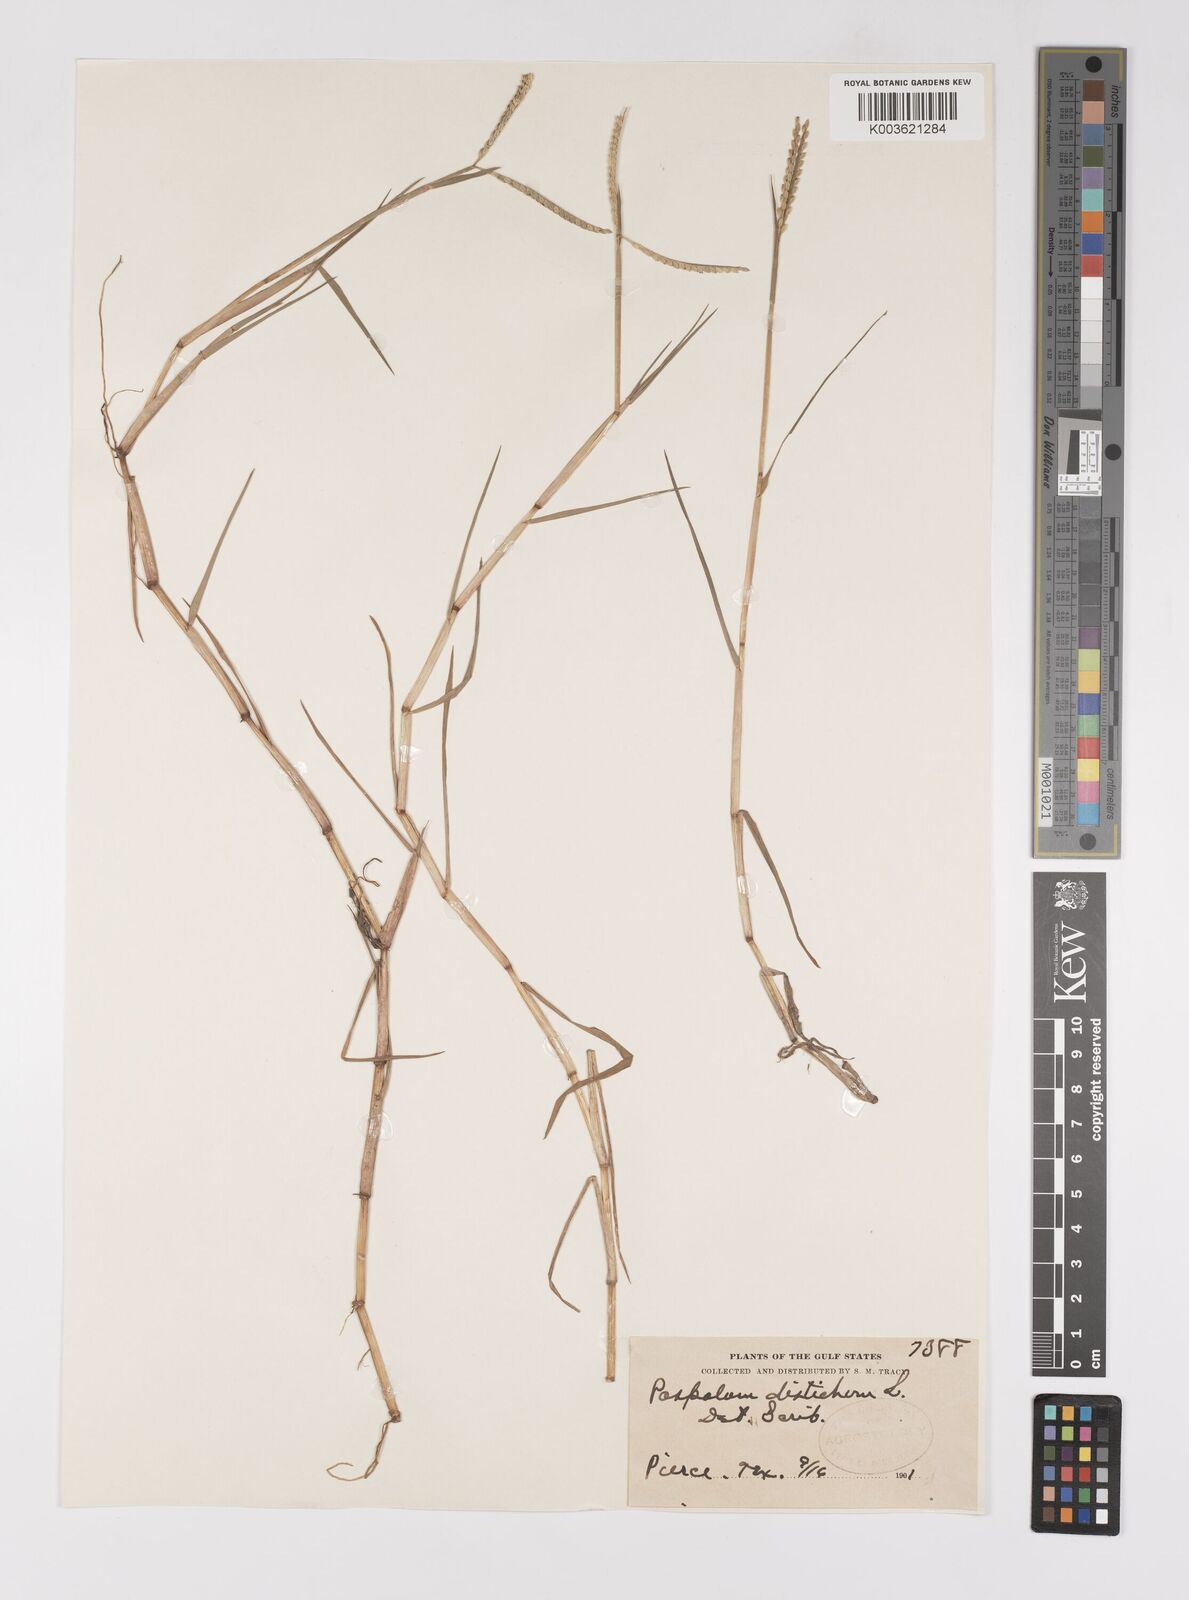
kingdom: Plantae
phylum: Tracheophyta
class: Liliopsida
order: Poales
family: Poaceae
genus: Paspalum
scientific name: Paspalum distichum
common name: Knotgrass
